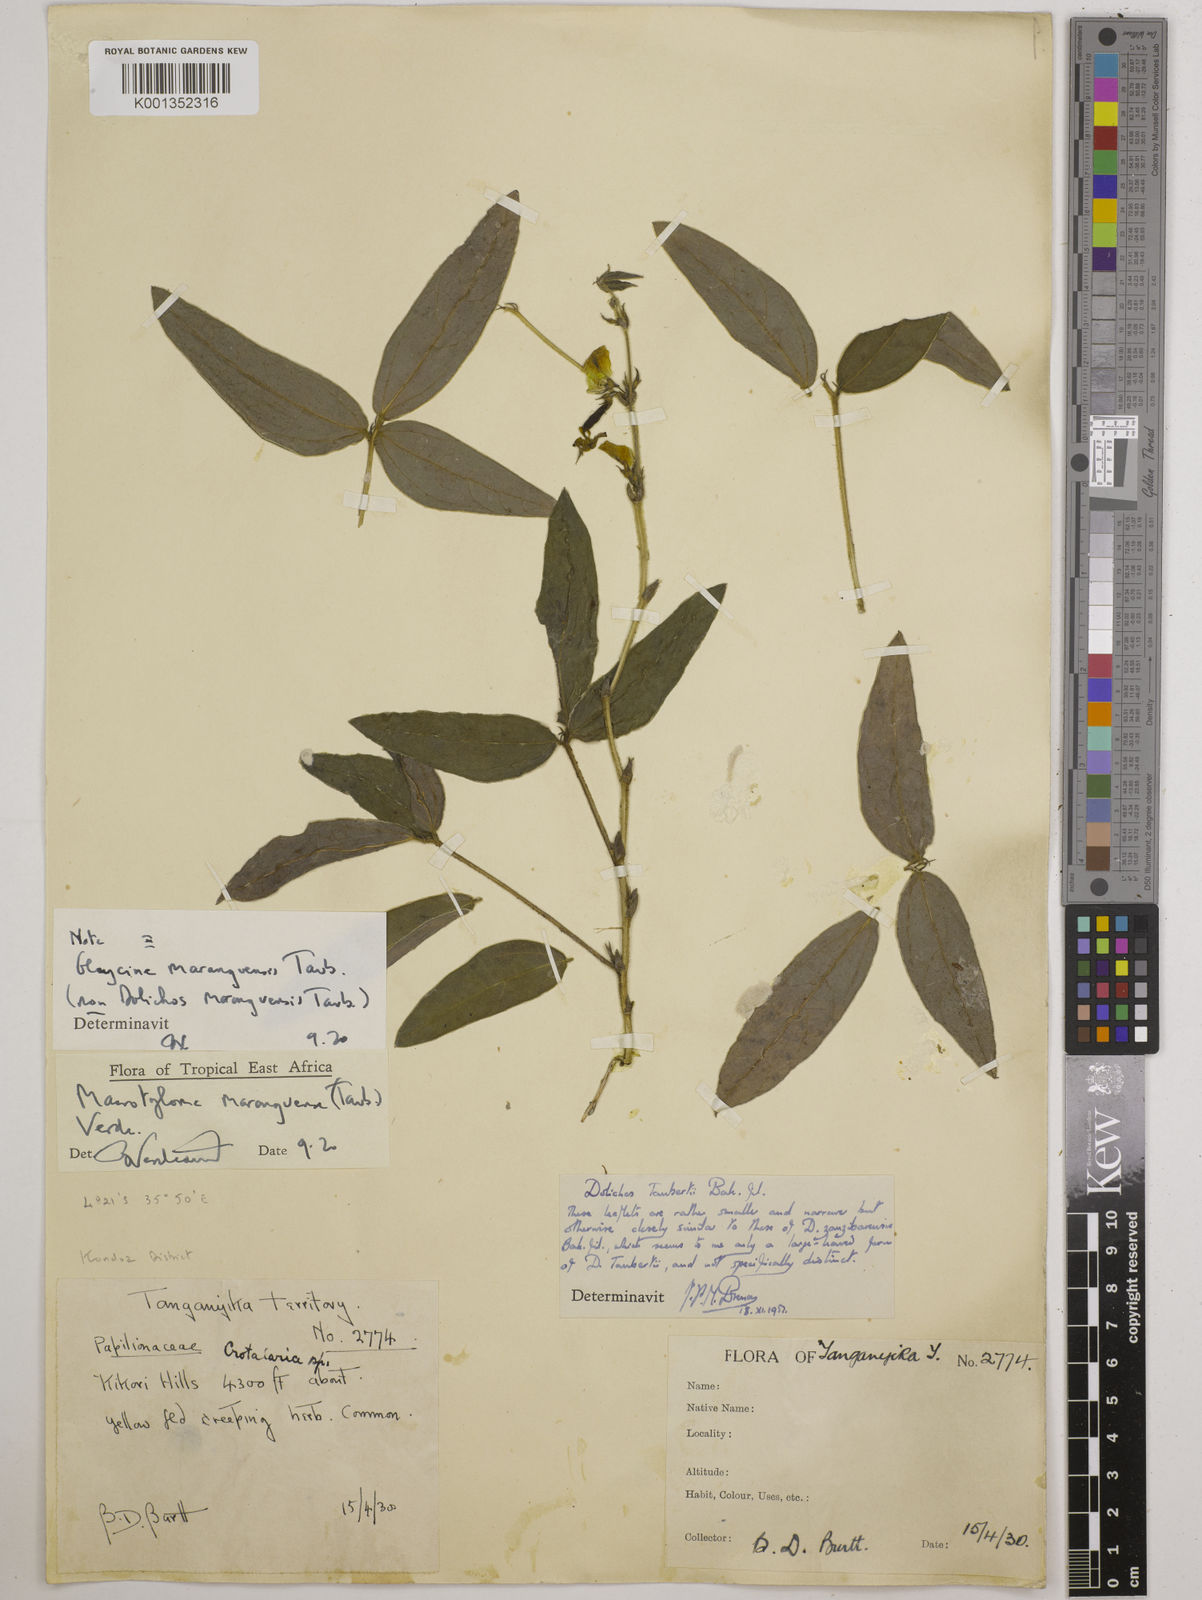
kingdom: Plantae
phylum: Tracheophyta
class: Magnoliopsida
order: Fabales
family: Fabaceae
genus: Macrotyloma
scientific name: Macrotyloma maranguense
